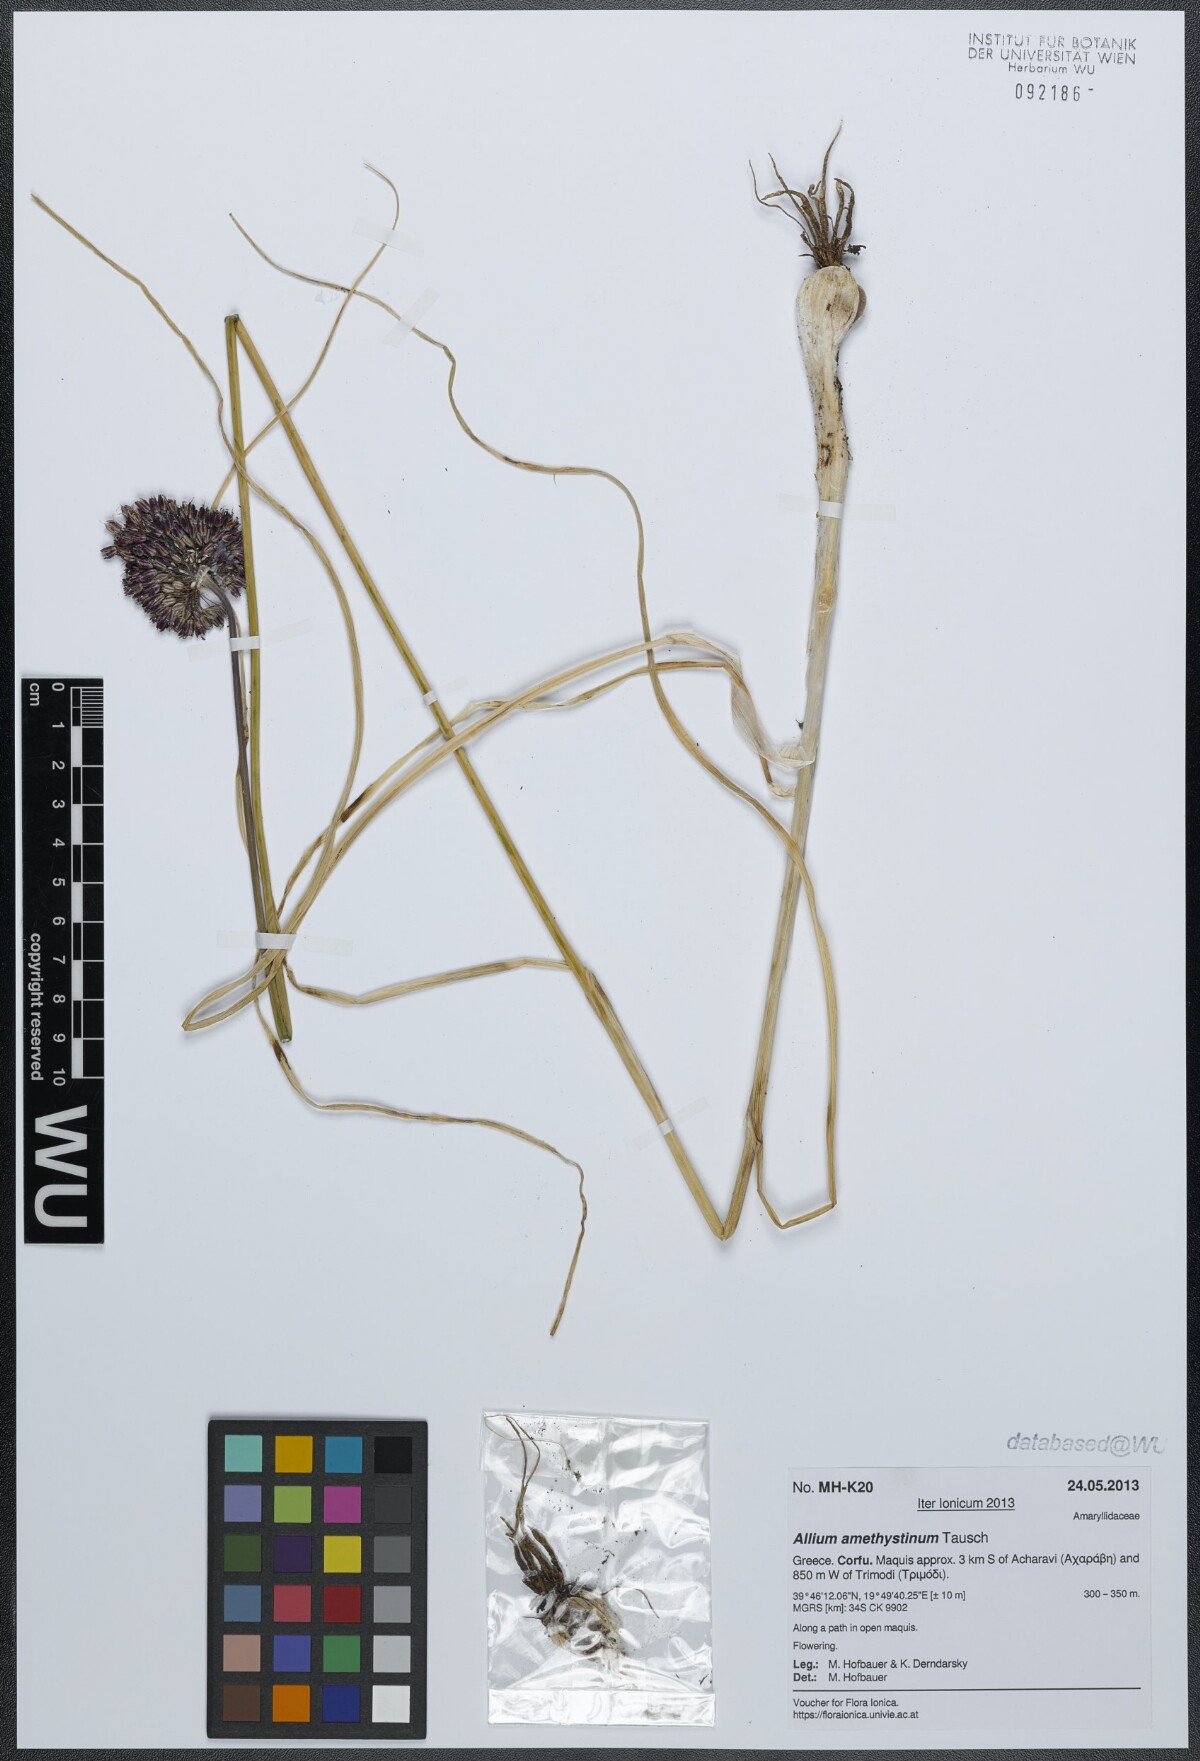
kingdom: Plantae
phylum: Tracheophyta
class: Liliopsida
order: Asparagales
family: Amaryllidaceae
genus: Allium
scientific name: Allium amethystinum
